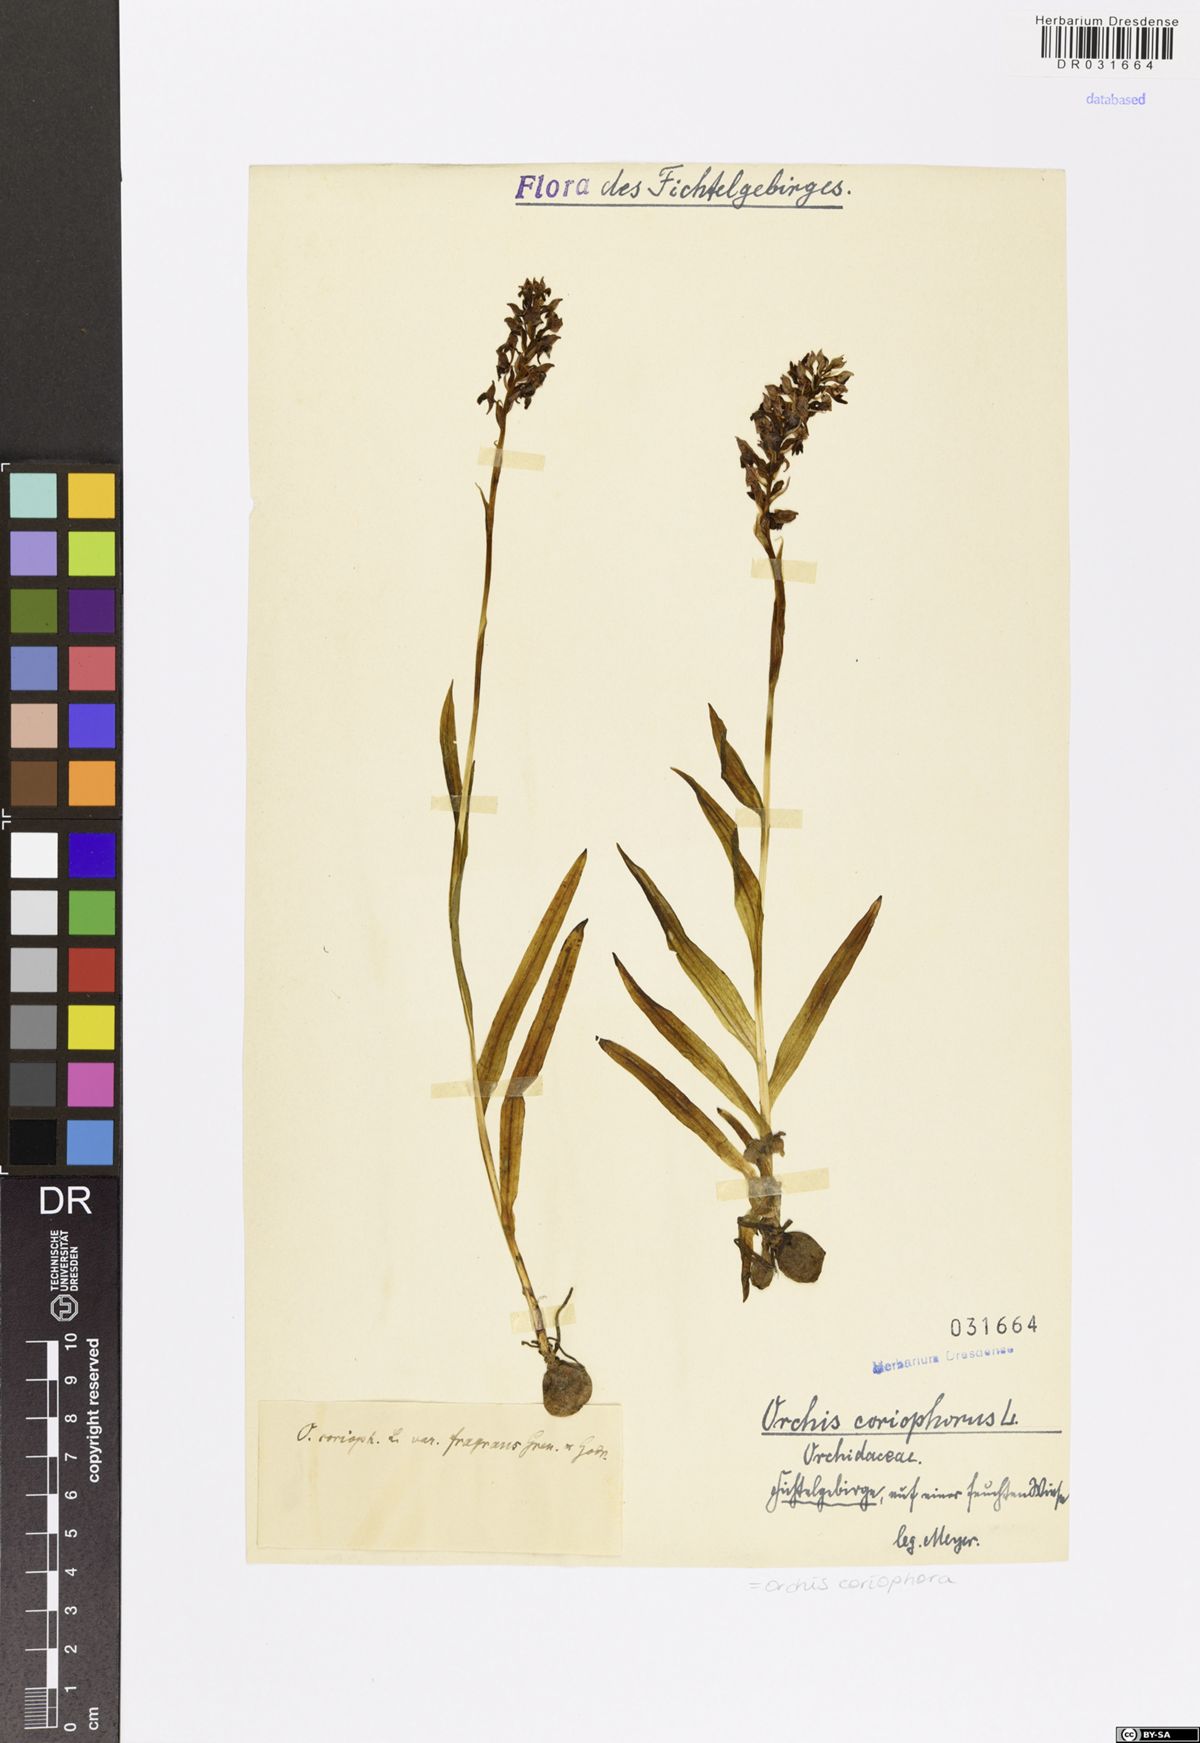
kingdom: Plantae
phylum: Tracheophyta
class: Liliopsida
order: Asparagales
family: Orchidaceae
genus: Anacamptis
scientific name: Anacamptis coriophora
